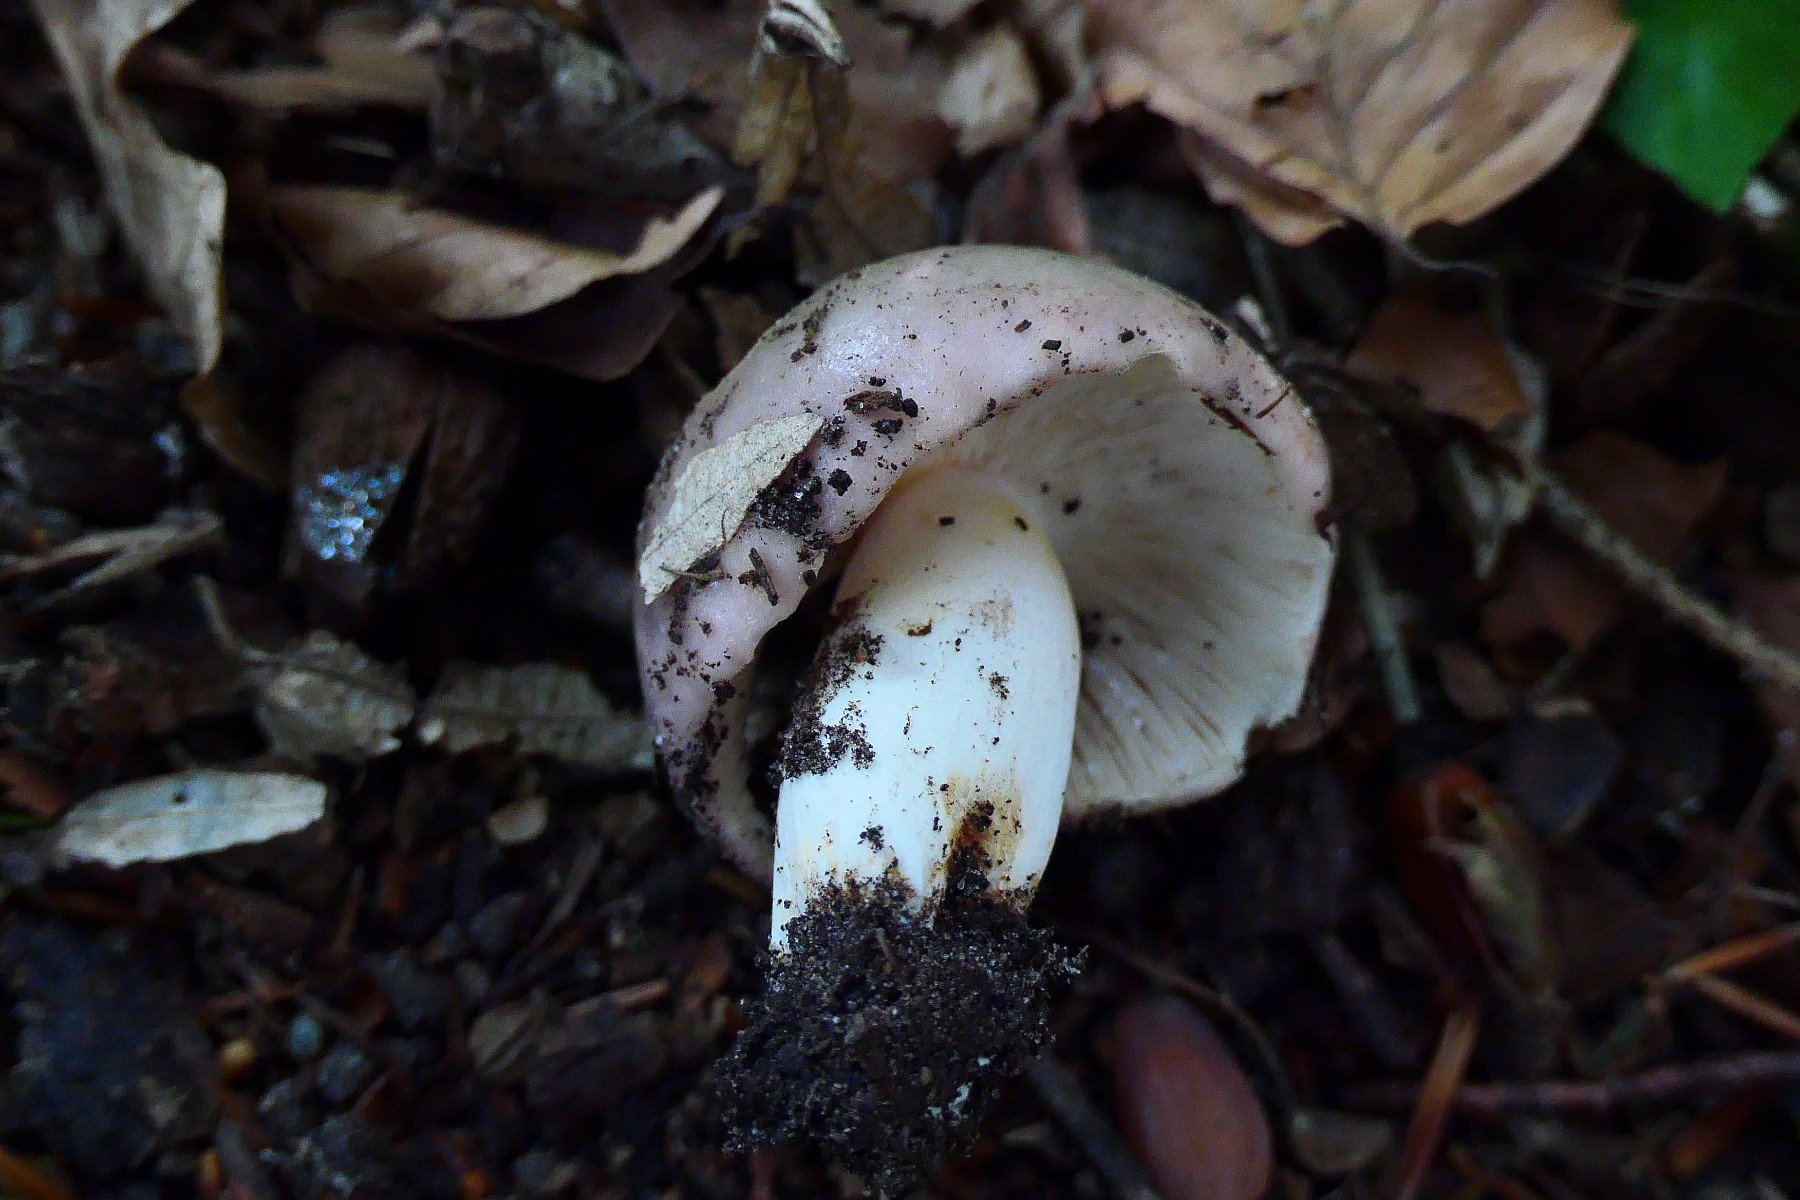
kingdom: Fungi
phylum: Basidiomycota
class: Agaricomycetes
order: Russulales
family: Russulaceae
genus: Russula
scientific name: Russula cyanoxantha
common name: broget skørhat
